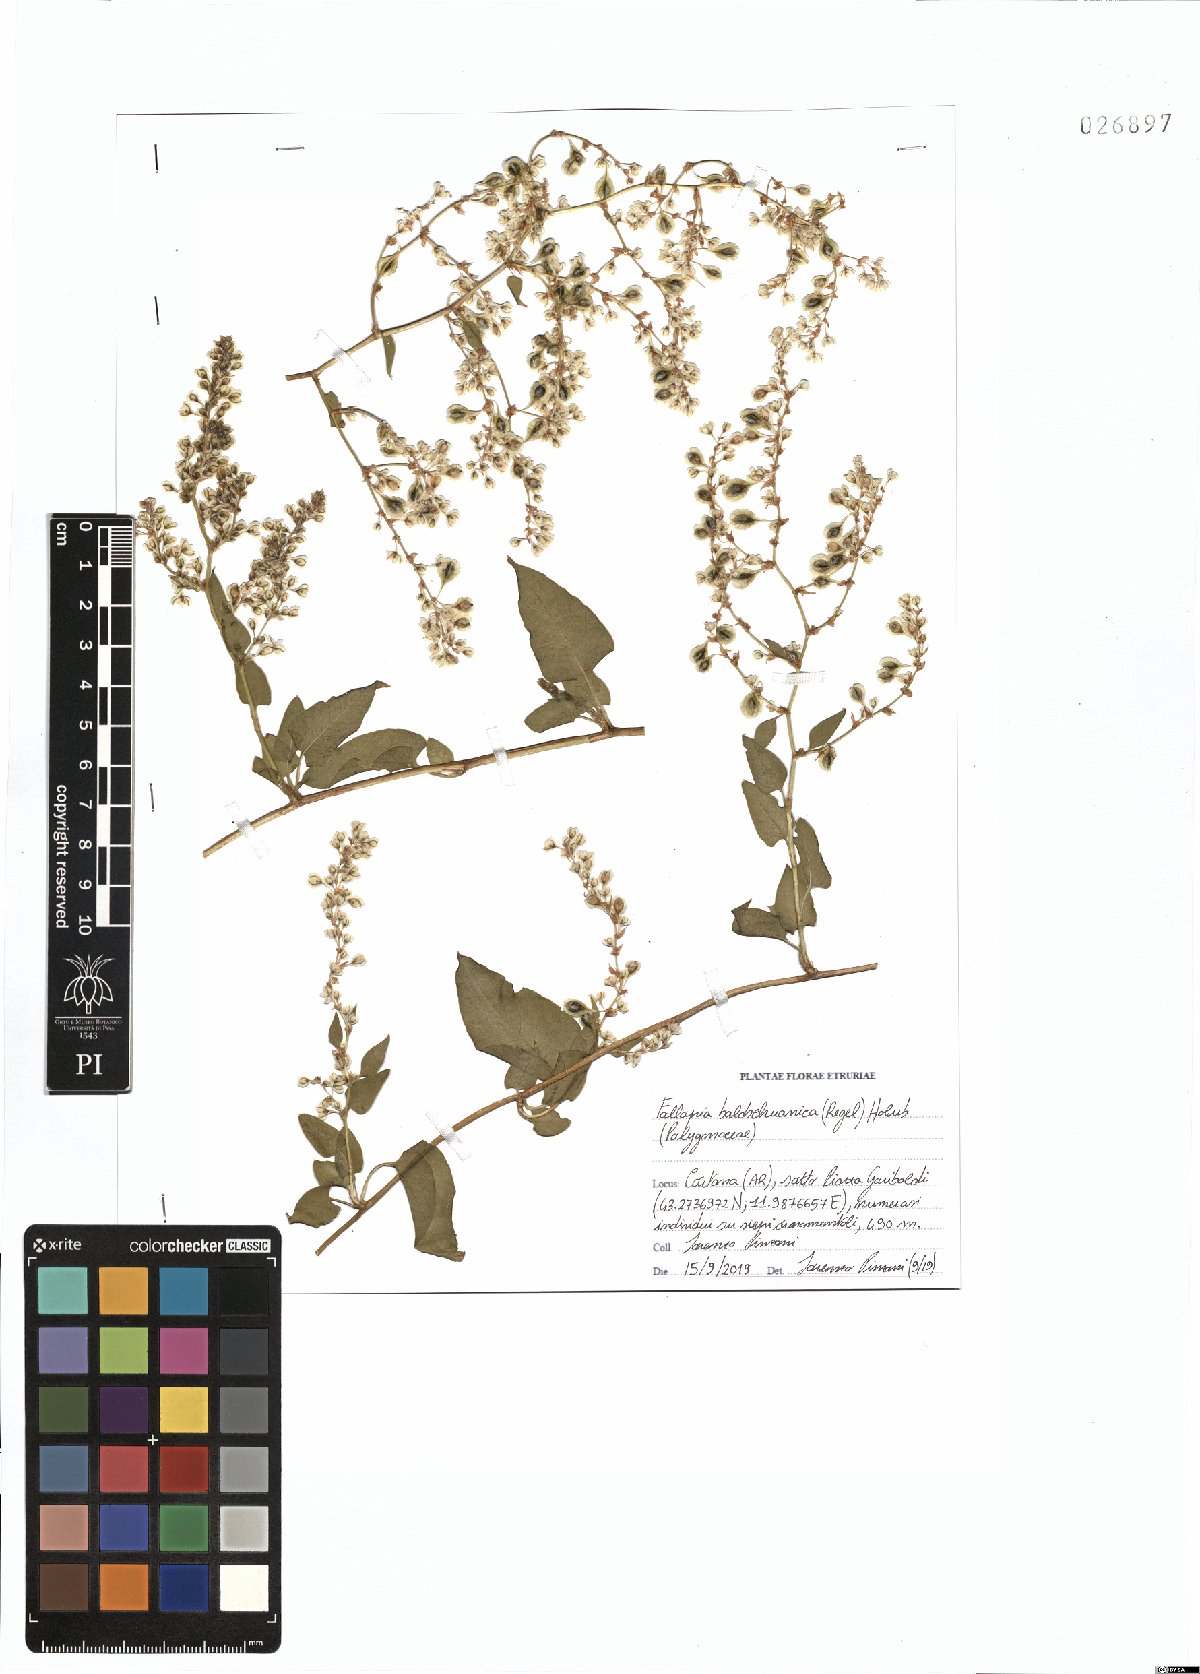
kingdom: Plantae
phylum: Tracheophyta
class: Magnoliopsida
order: Caryophyllales
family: Polygonaceae
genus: Fallopia
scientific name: Fallopia baldschuanica
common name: Russian-vine
